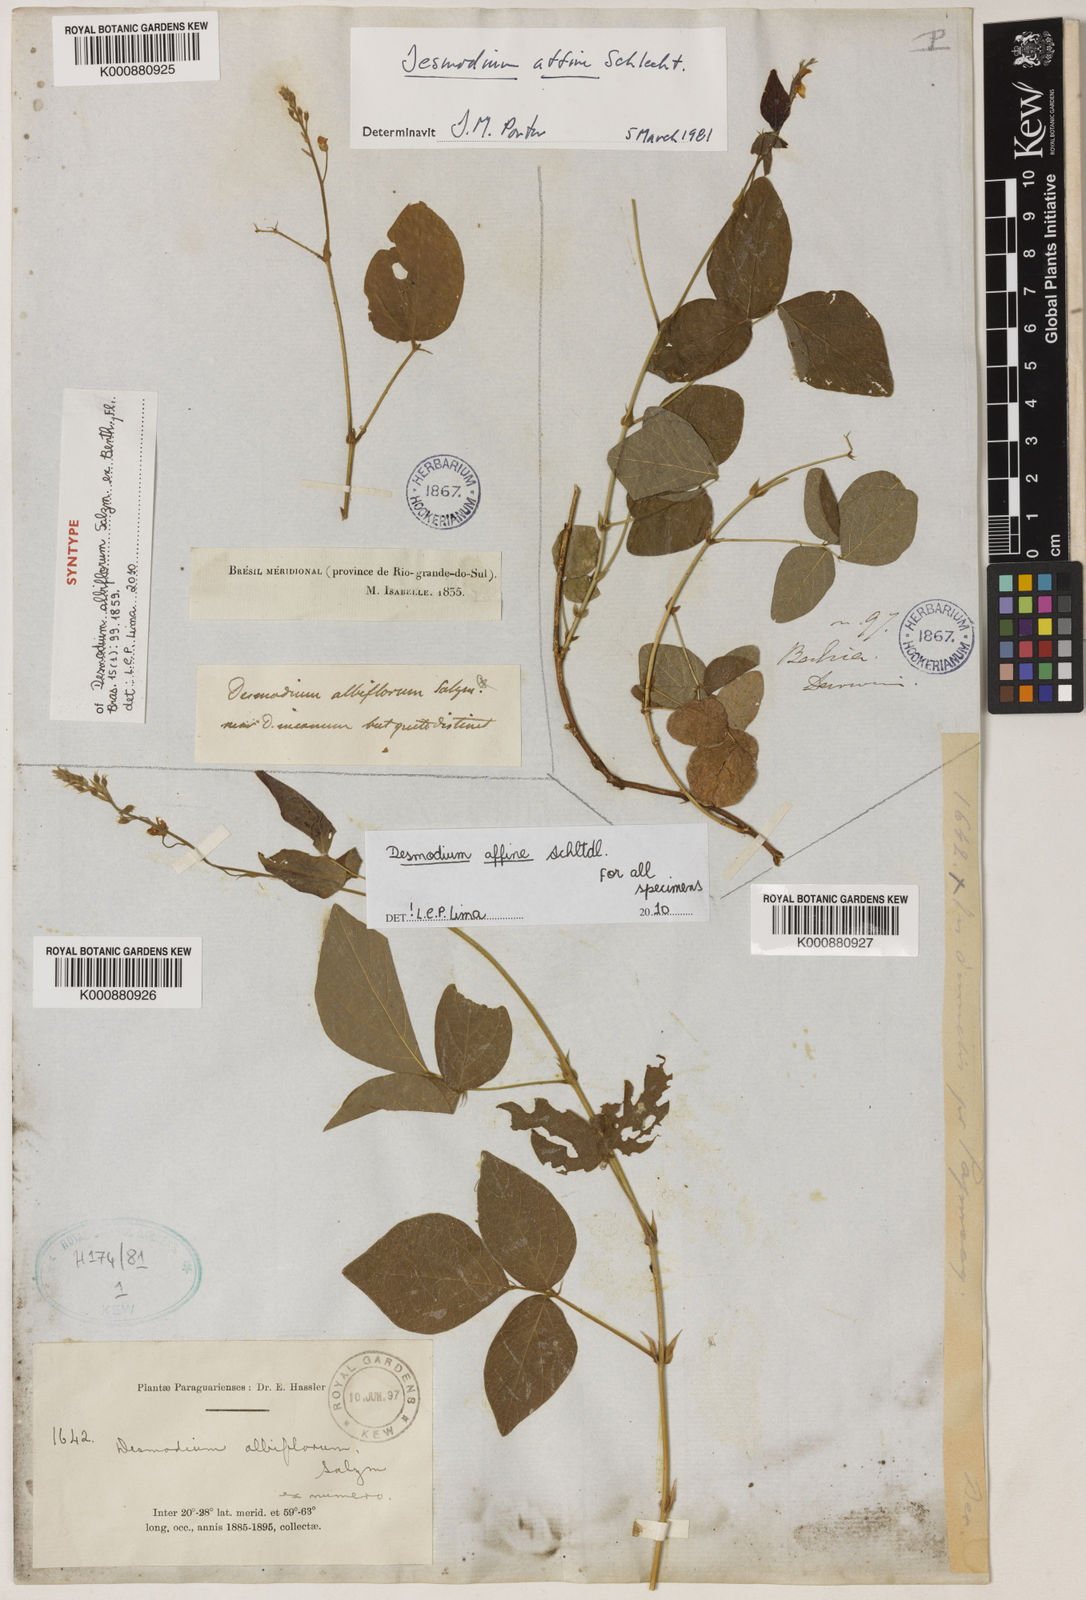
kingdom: Plantae
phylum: Tracheophyta
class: Magnoliopsida
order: Fabales
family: Fabaceae
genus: Desmodium
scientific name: Desmodium affine
